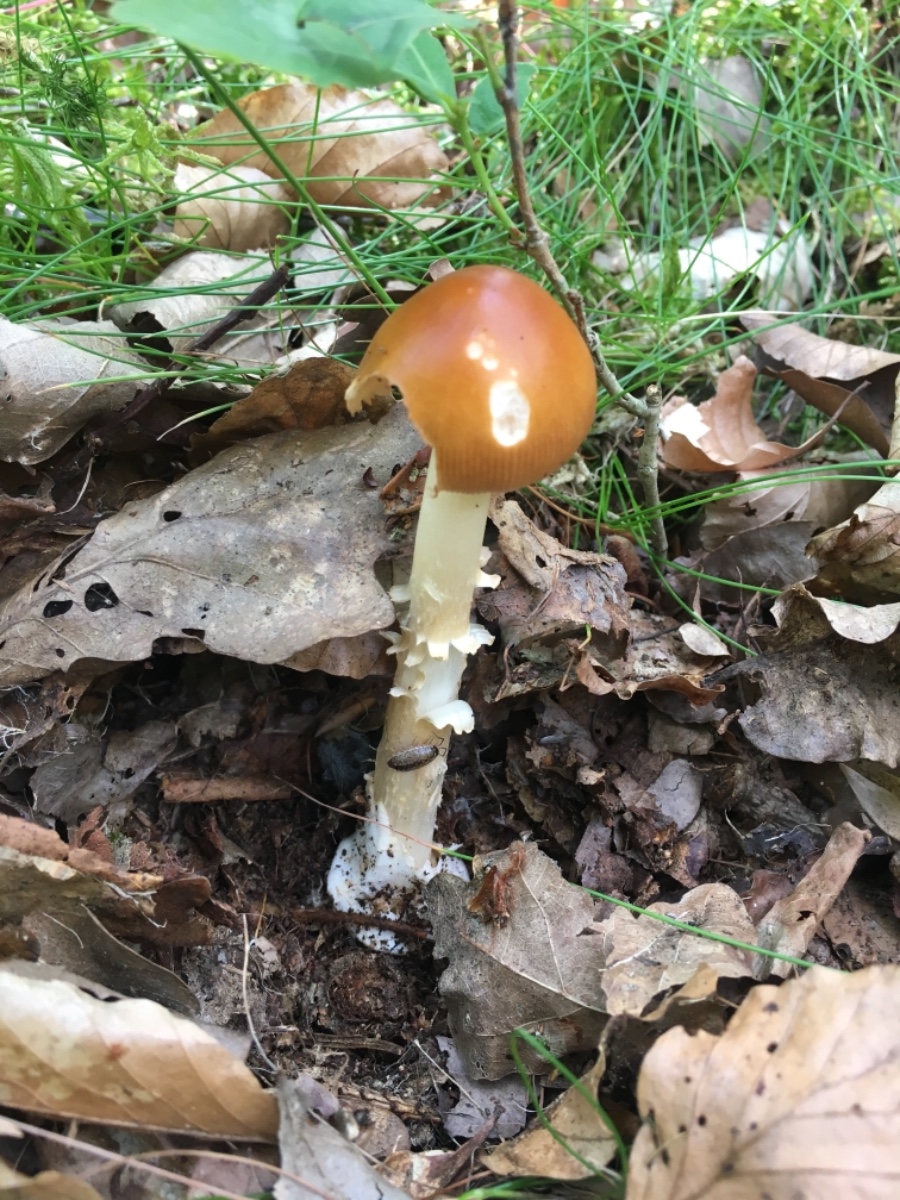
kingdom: Fungi
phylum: Basidiomycota
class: Agaricomycetes
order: Agaricales
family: Amanitaceae
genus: Amanita
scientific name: Amanita fulva
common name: brun kam-fluesvamp
